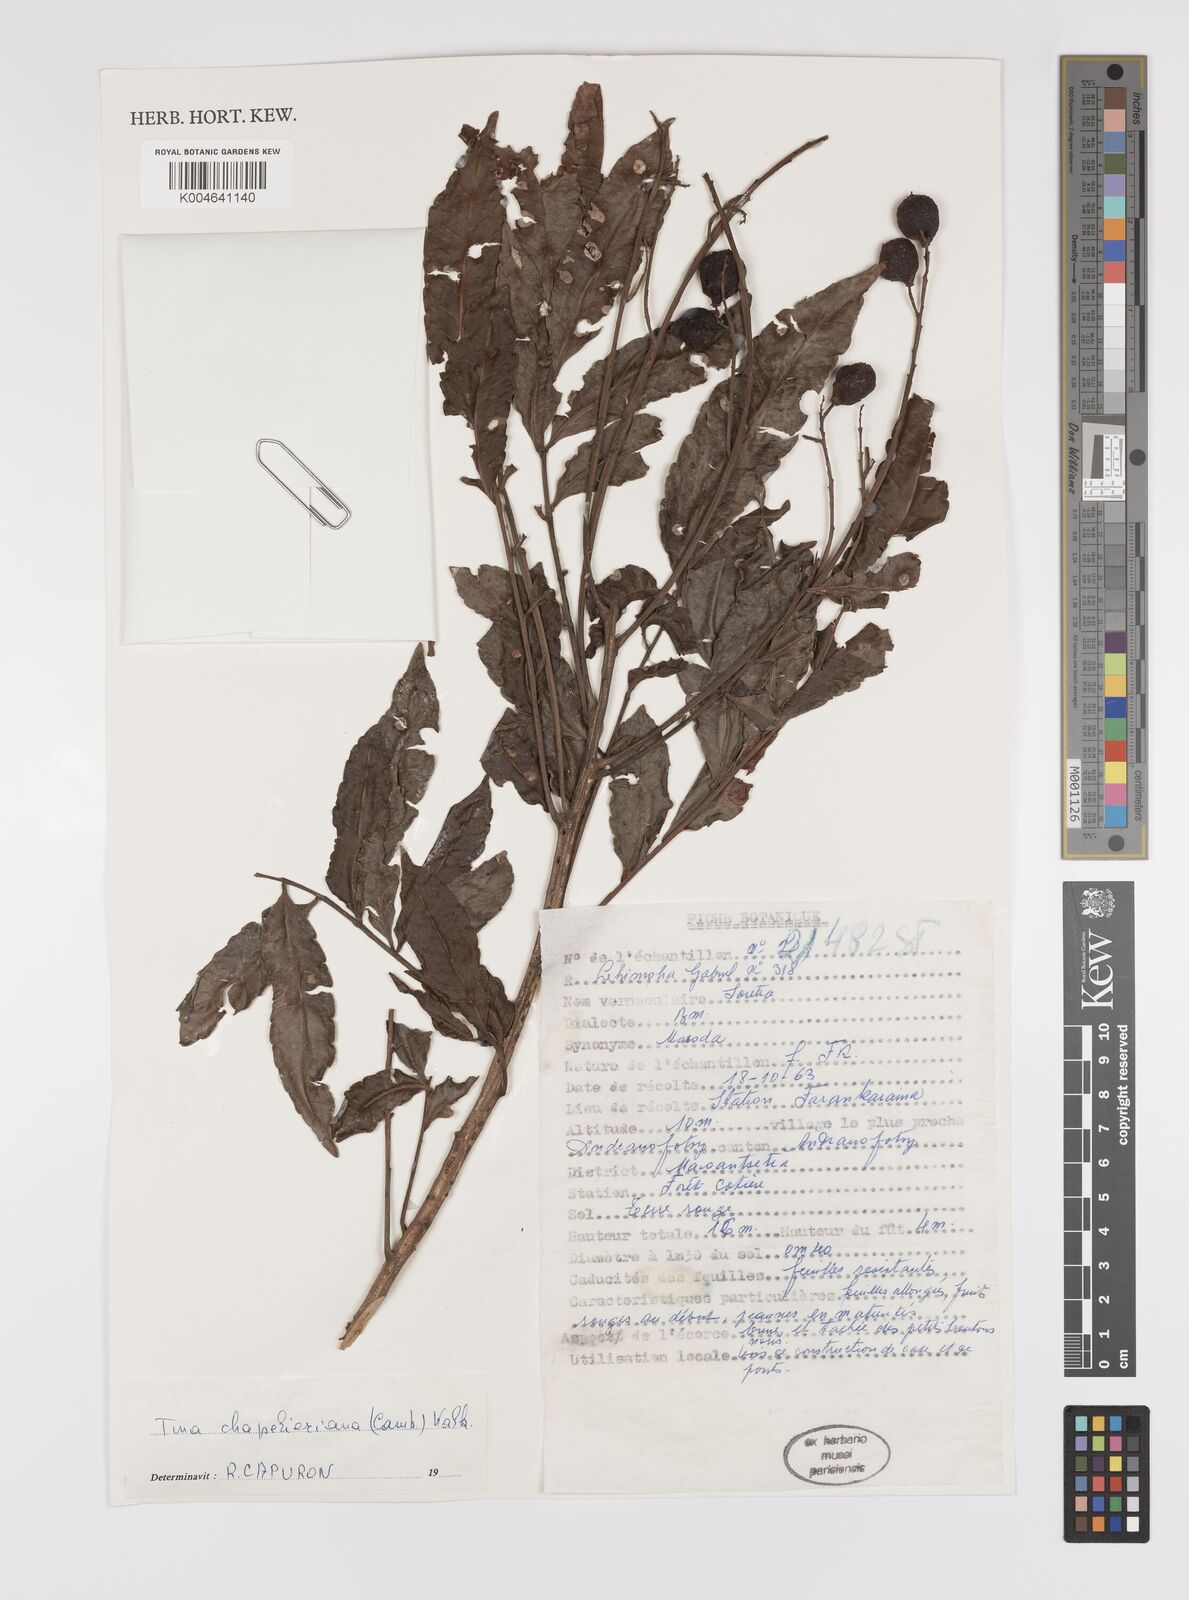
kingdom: Plantae
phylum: Tracheophyta
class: Magnoliopsida
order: Sapindales
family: Sapindaceae
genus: Tina
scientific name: Tina chapelieriana
